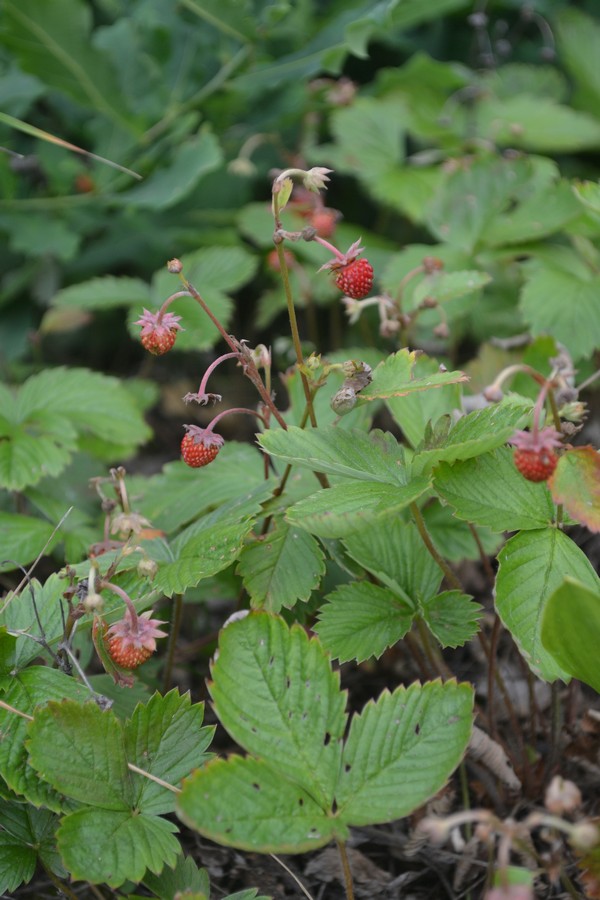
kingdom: Plantae
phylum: Tracheophyta
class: Magnoliopsida
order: Rosales
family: Rosaceae
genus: Fragaria
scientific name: Fragaria vesca
